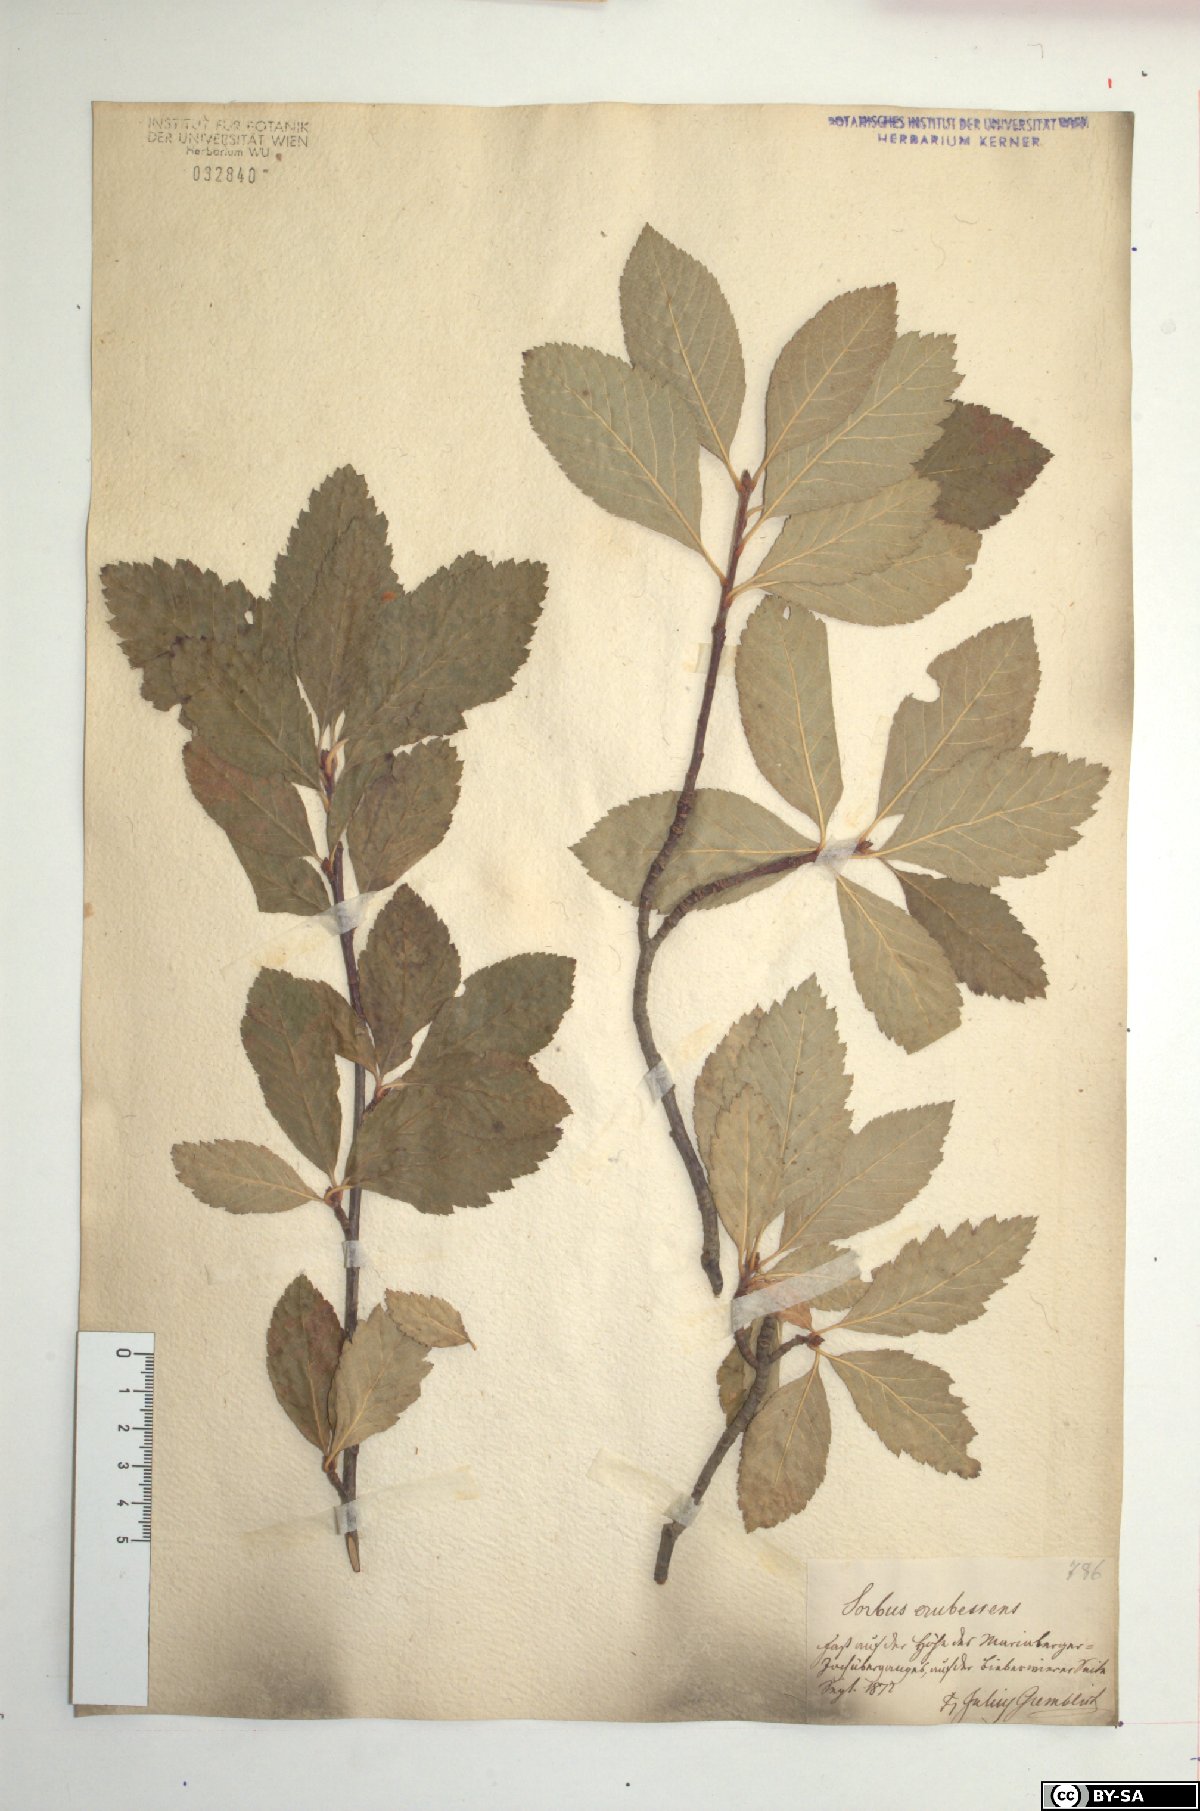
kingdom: Plantae
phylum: Tracheophyta
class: Magnoliopsida
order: Rosales
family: Rosaceae
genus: Majovskya
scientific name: Majovskya sudetica
